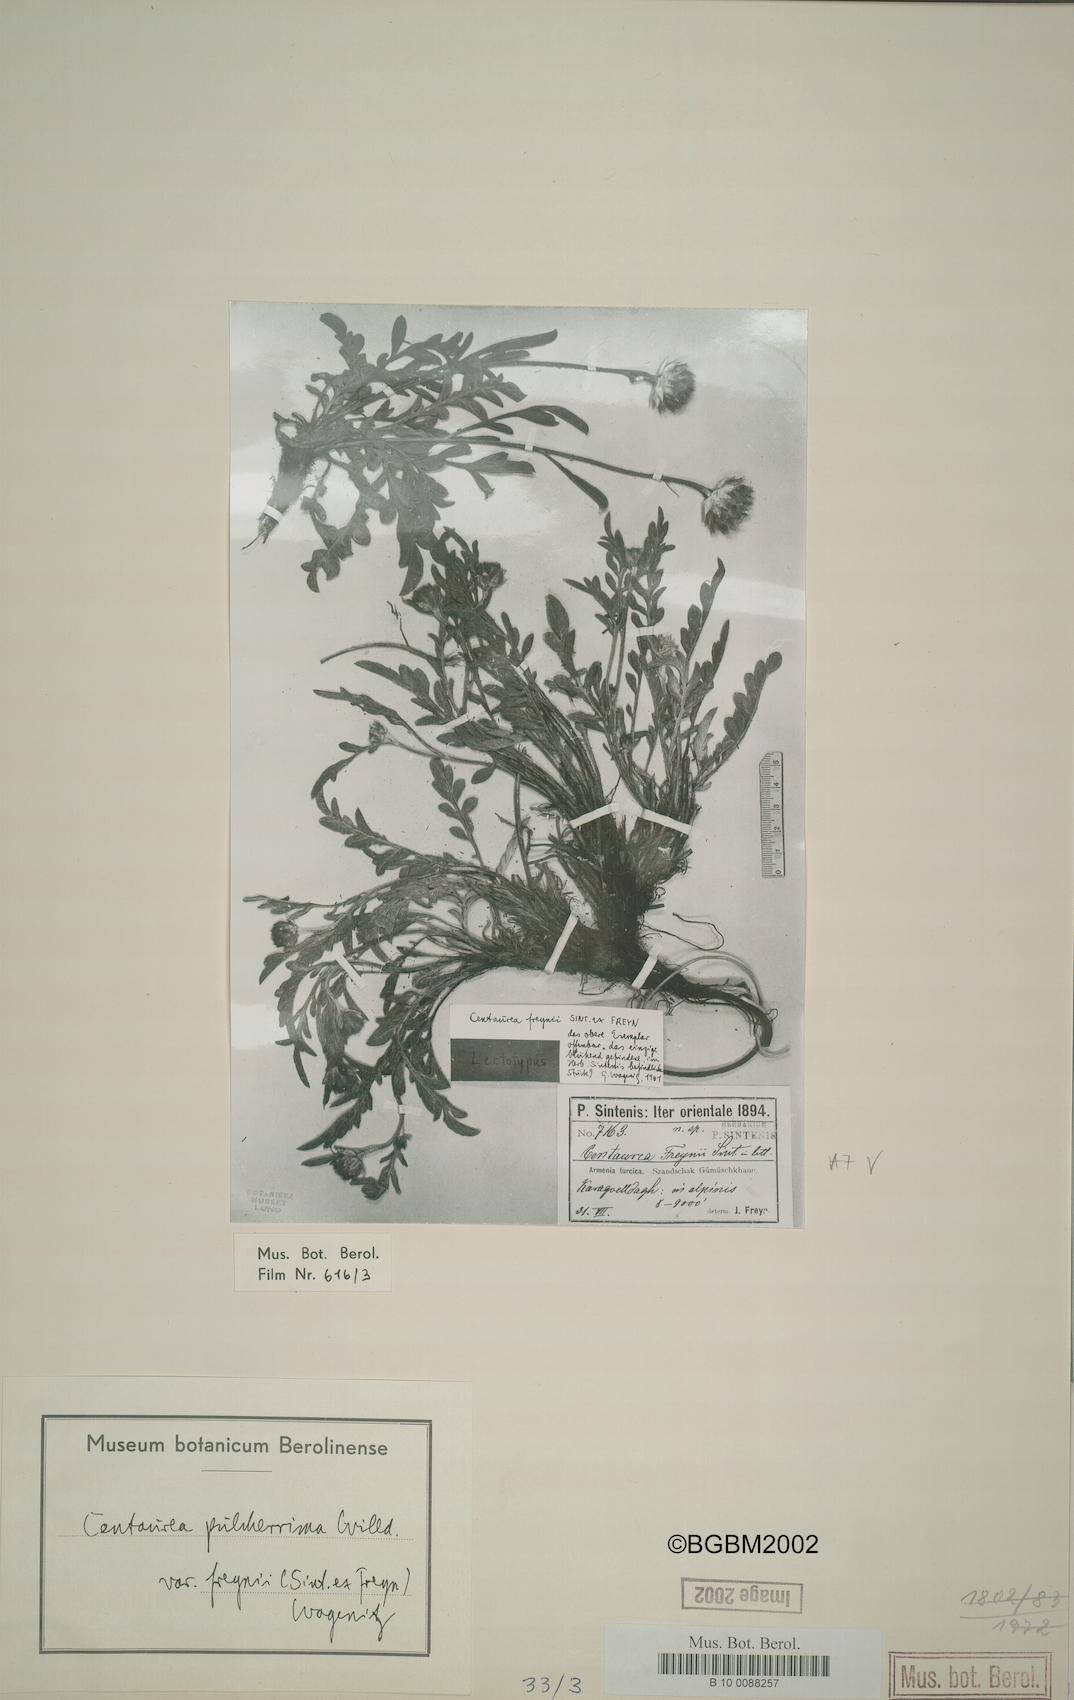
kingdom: Plantae
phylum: Tracheophyta
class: Magnoliopsida
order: Asterales
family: Asteraceae
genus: Psephellus
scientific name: Psephellus freynii
